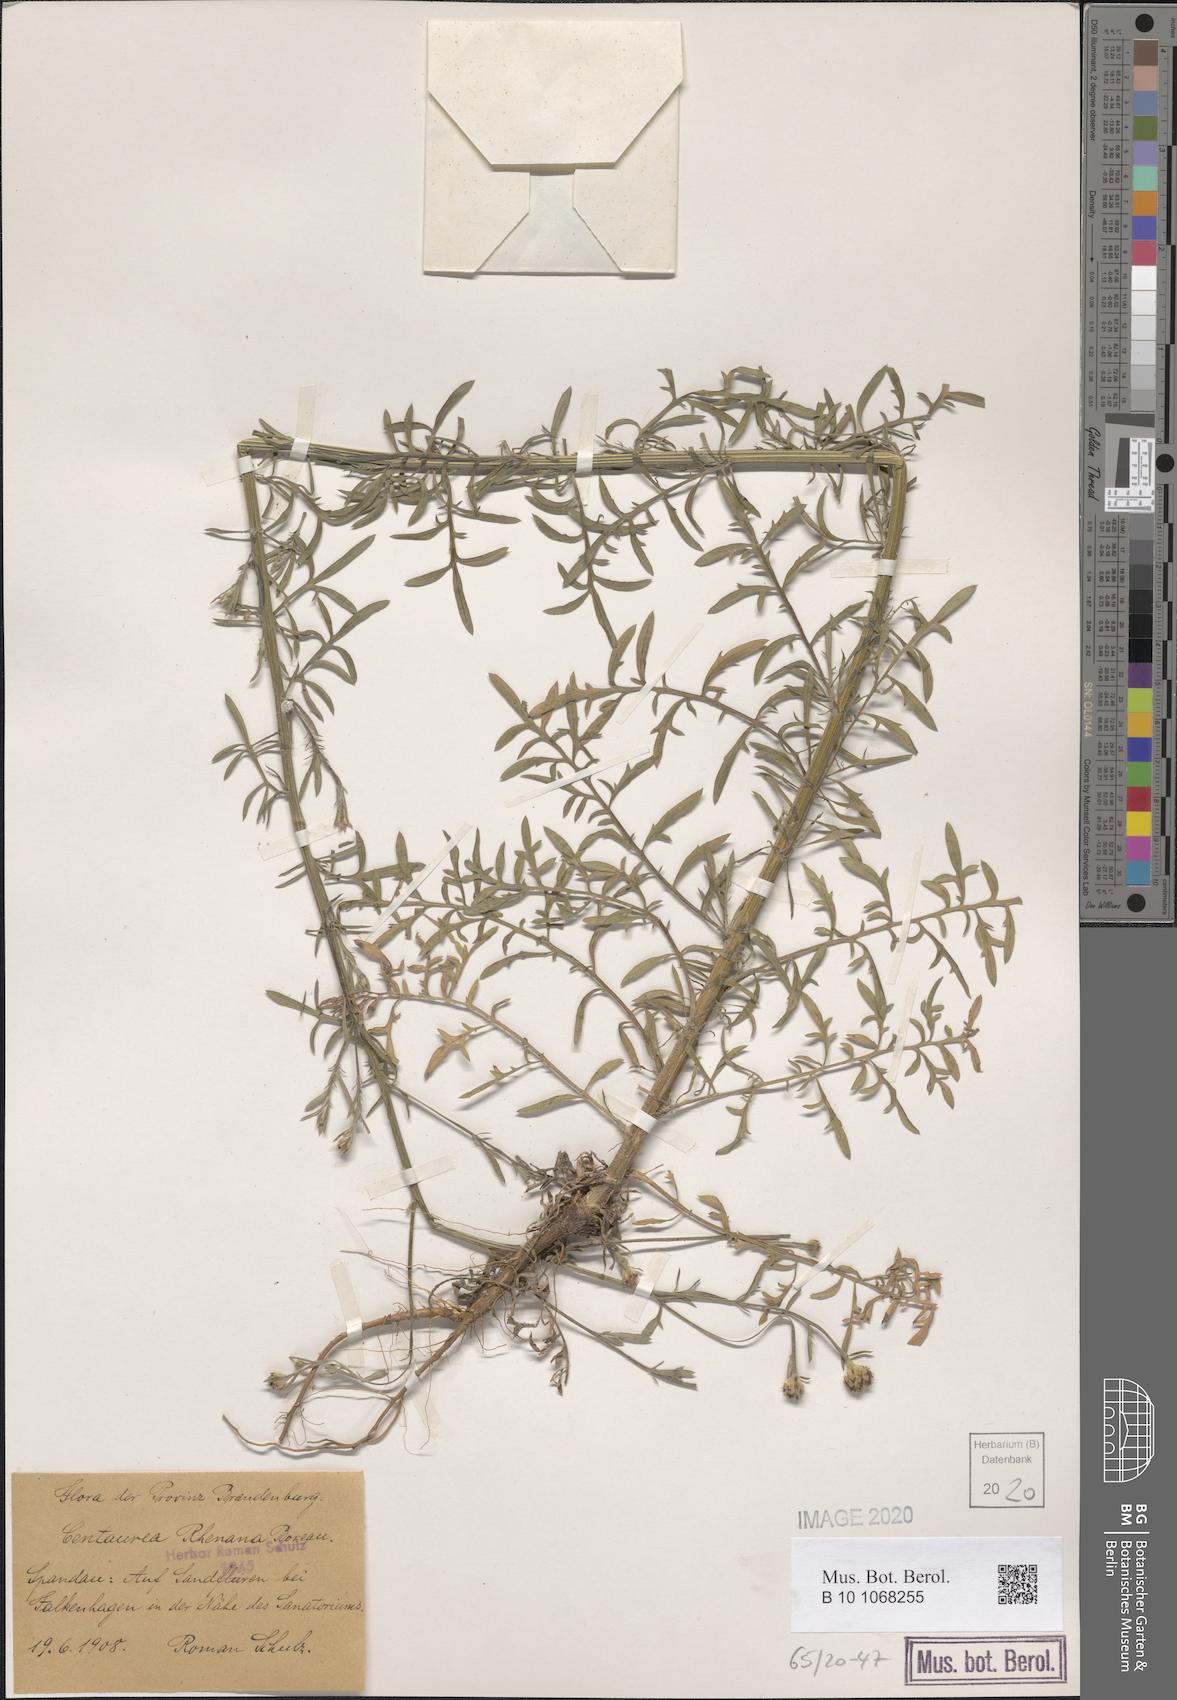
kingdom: Plantae
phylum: Tracheophyta
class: Magnoliopsida
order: Asterales
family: Asteraceae
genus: Centaurea
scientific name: Centaurea stoebe
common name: Spotted knapweed
